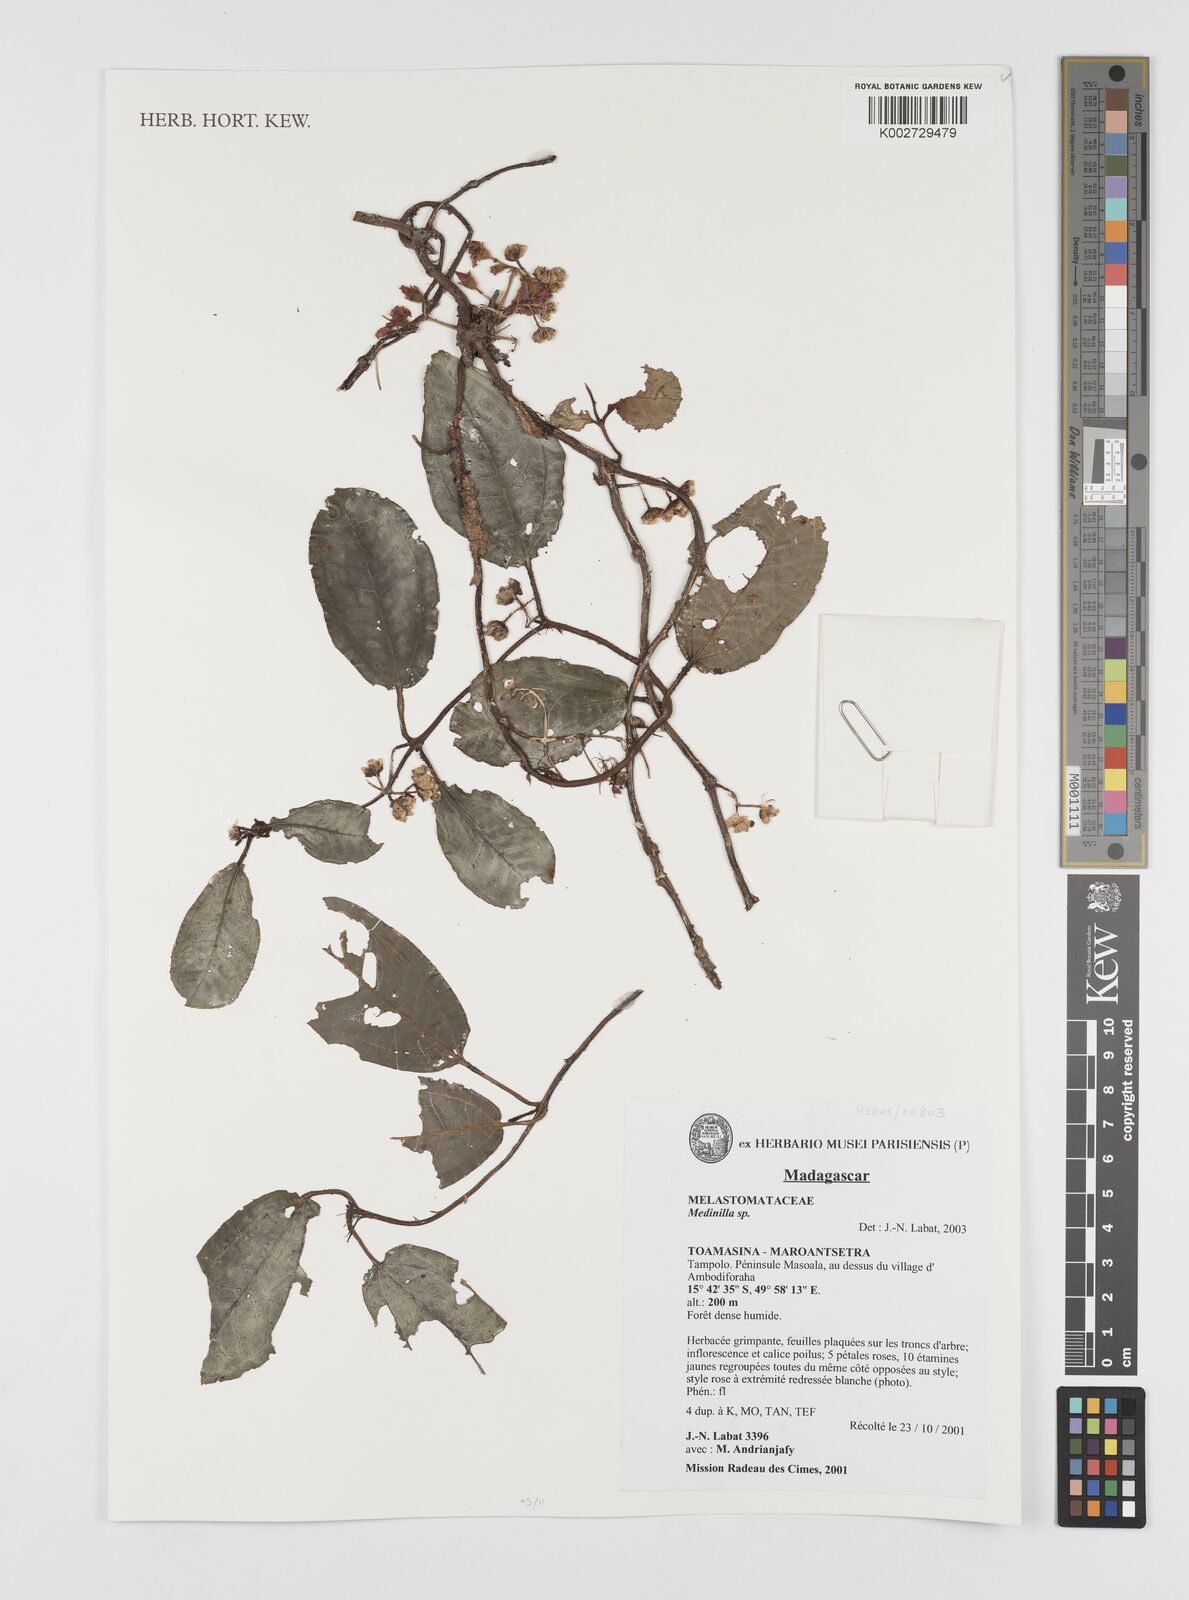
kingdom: Plantae
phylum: Tracheophyta
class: Magnoliopsida
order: Myrtales
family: Melastomataceae
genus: Medinilla
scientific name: Medinilla
